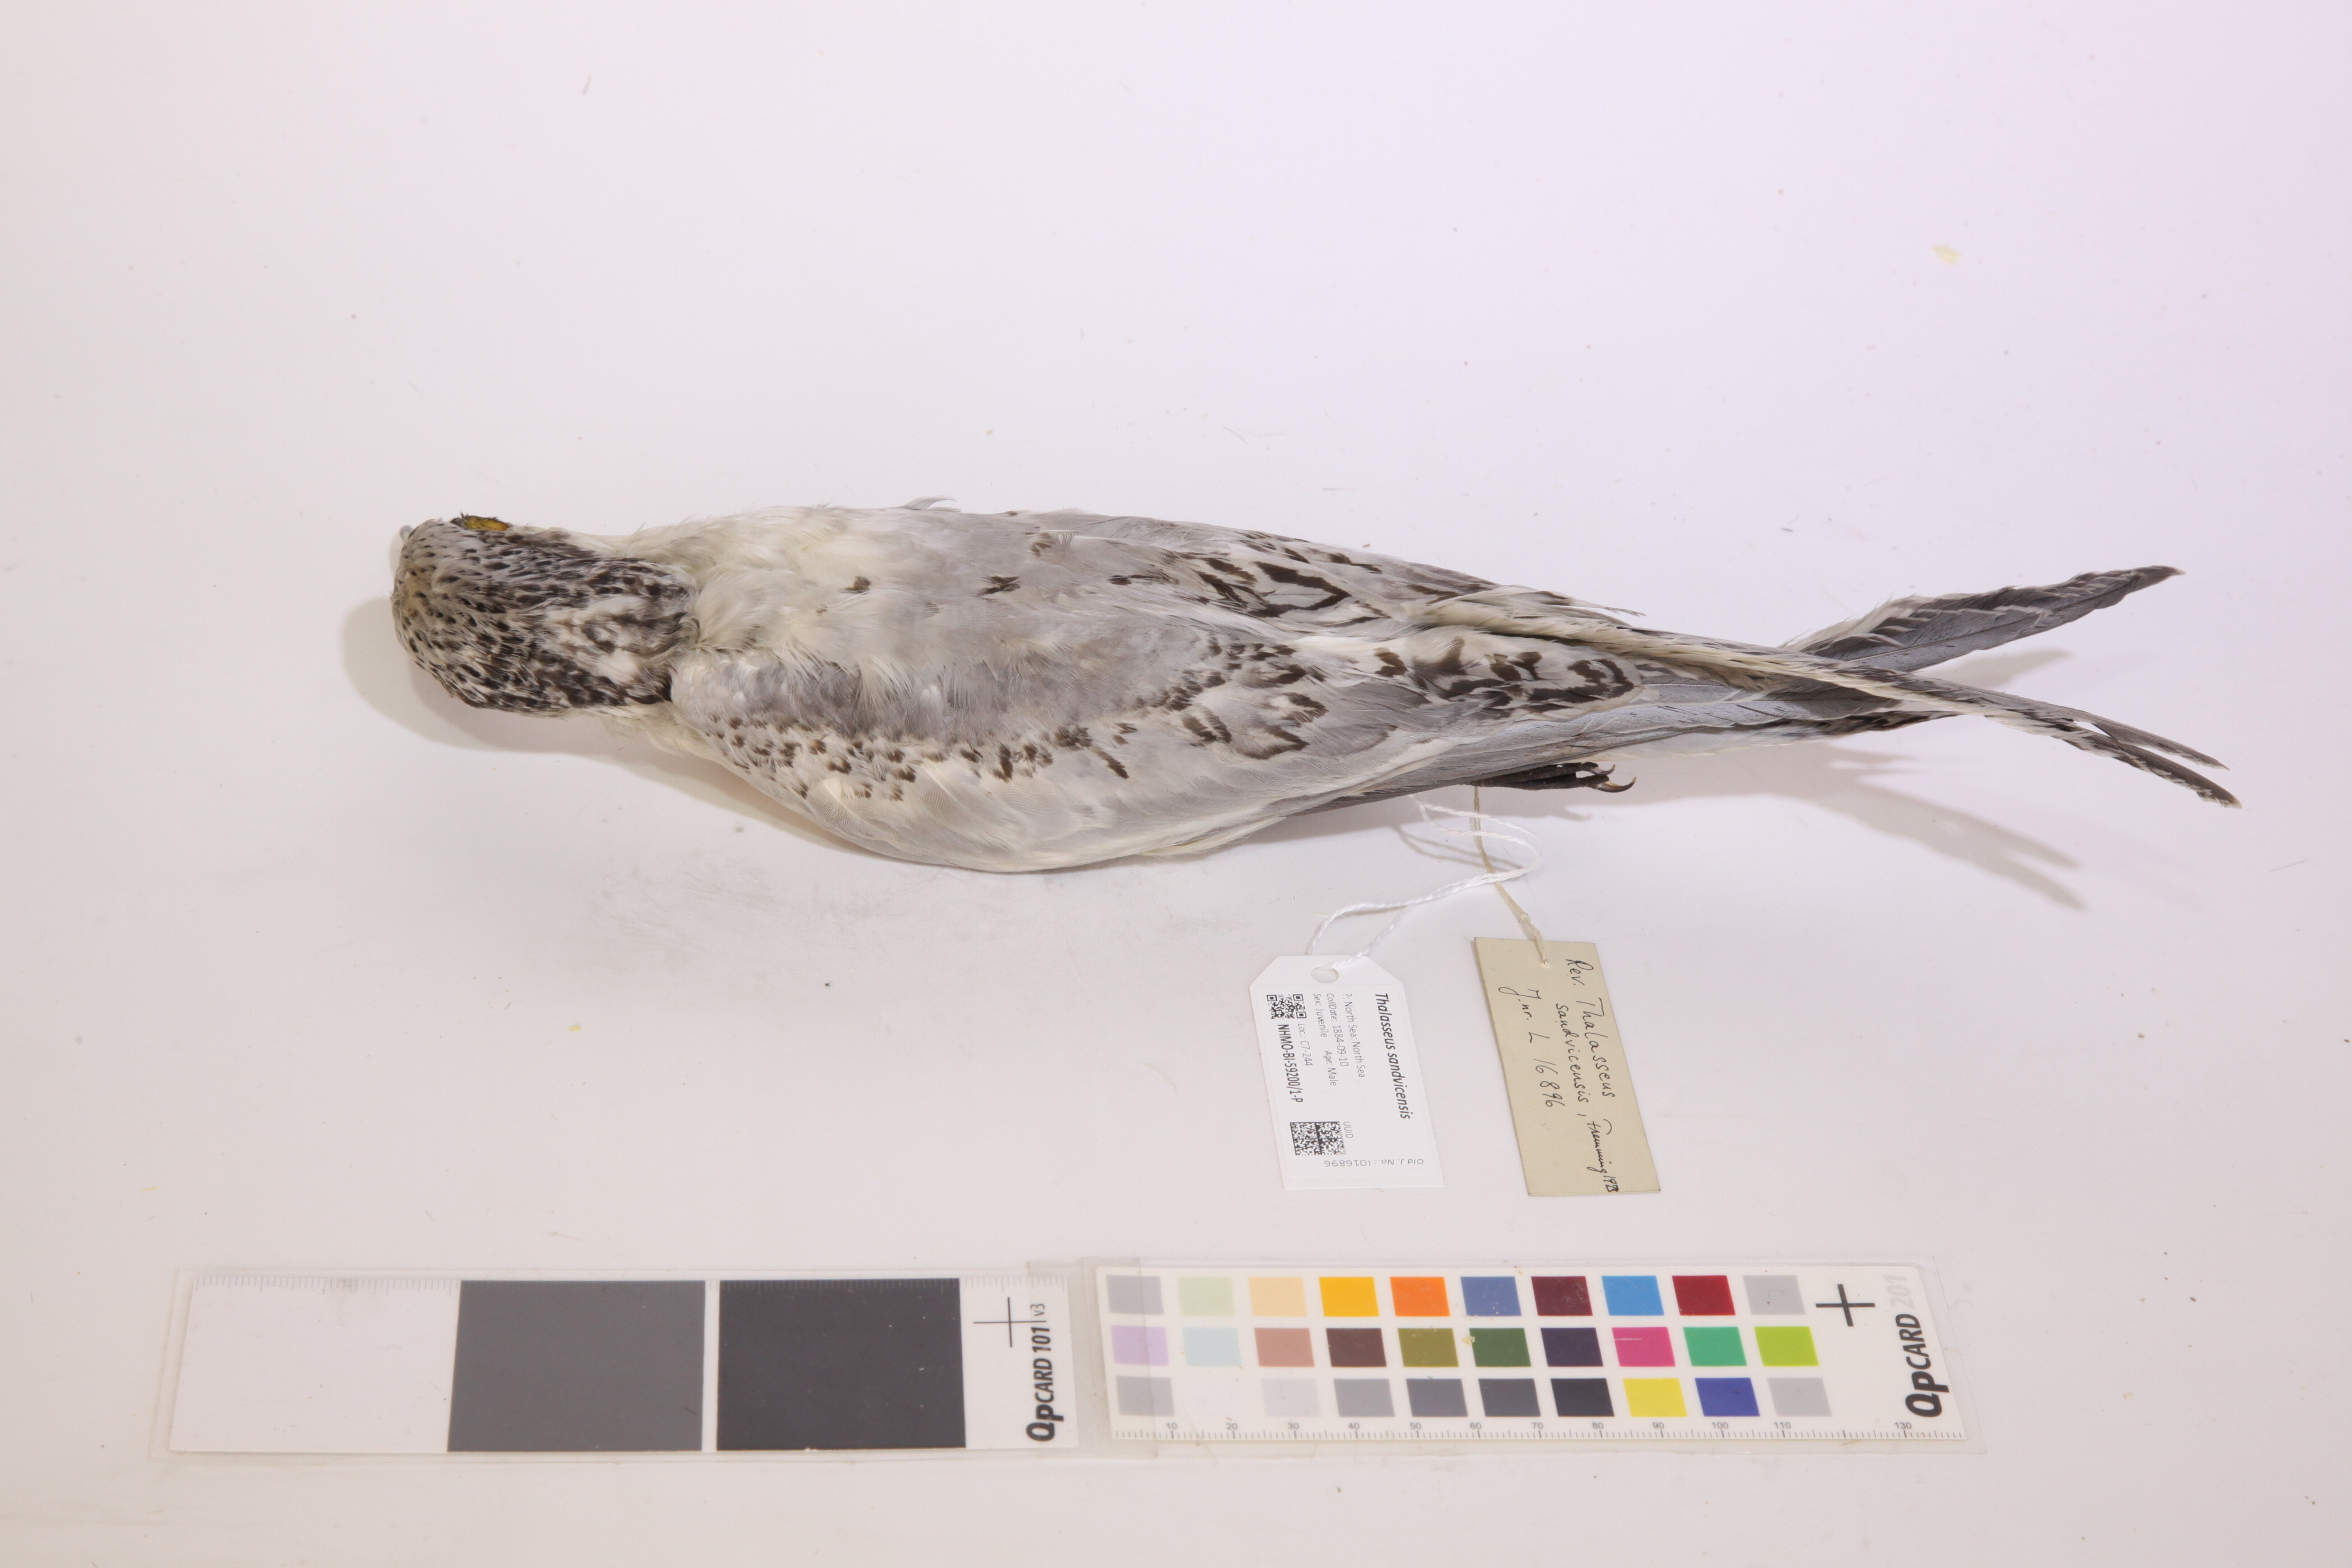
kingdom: Animalia
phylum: Chordata
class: Aves
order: Charadriiformes
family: Laridae
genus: Thalasseus
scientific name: Thalasseus sandvicensis
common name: Sandwich tern
